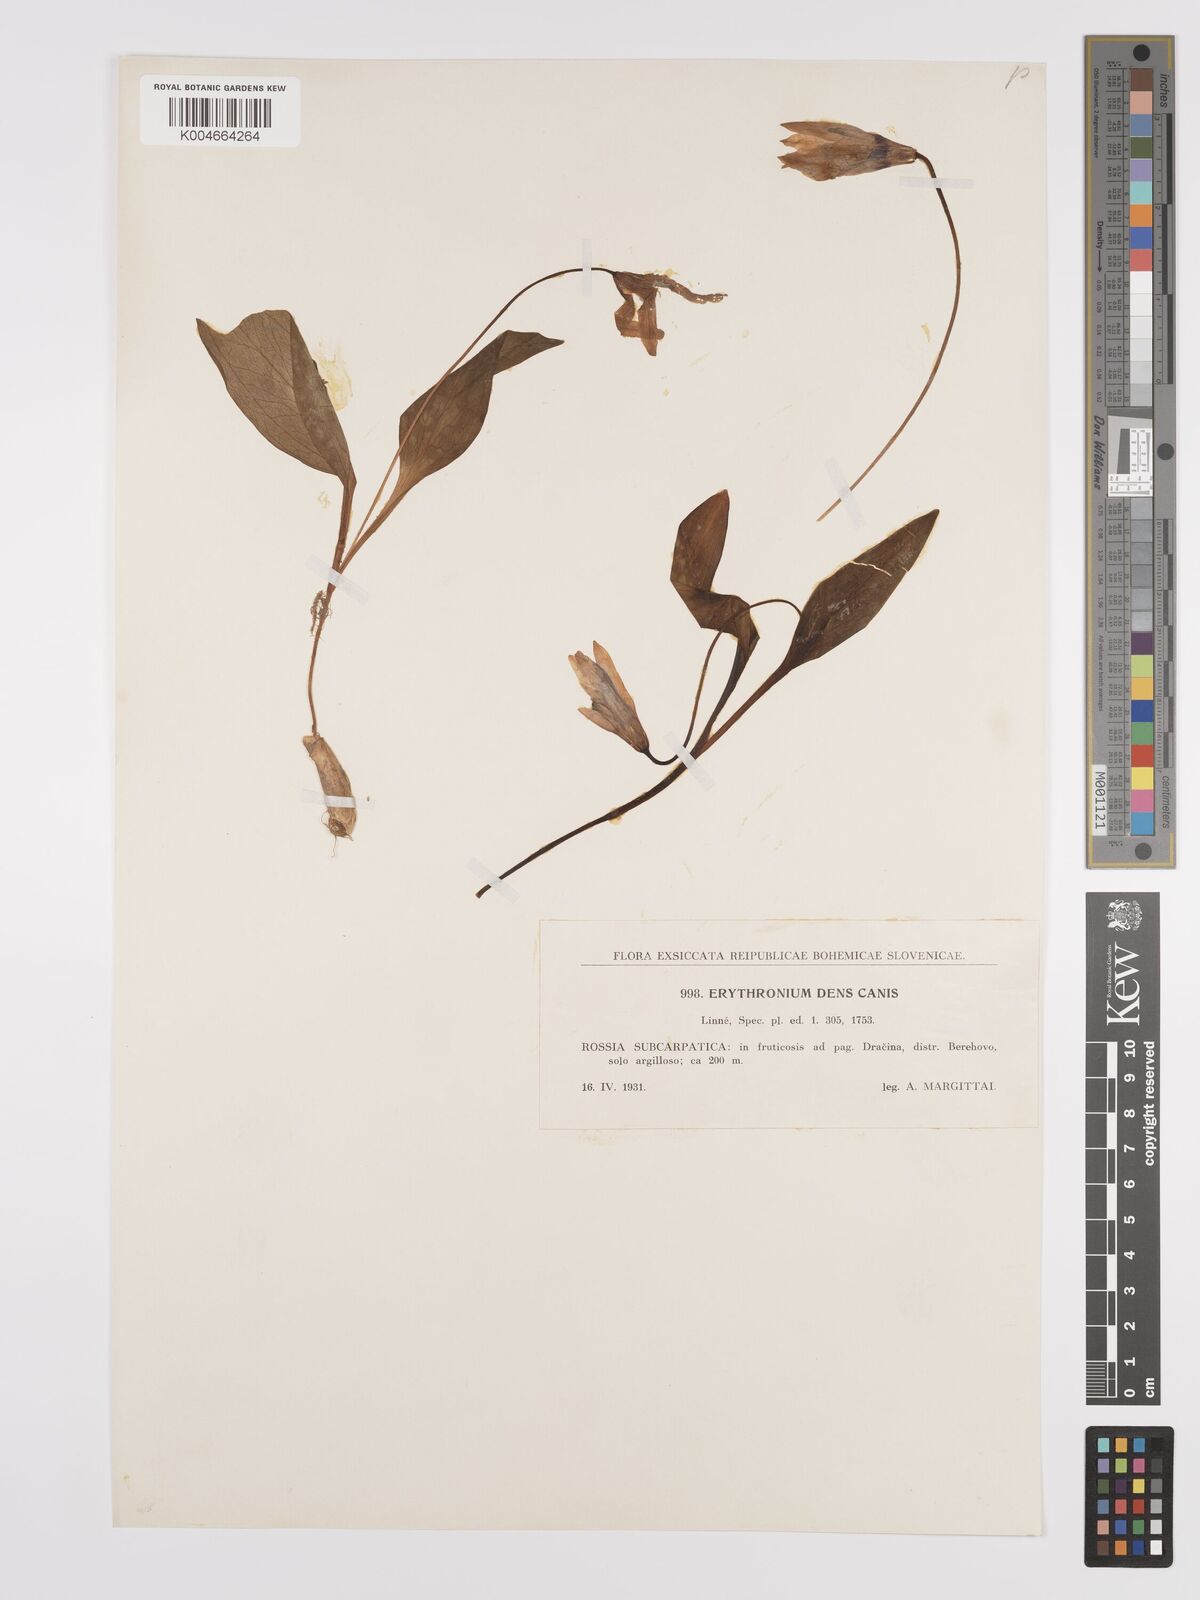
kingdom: Plantae
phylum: Tracheophyta
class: Liliopsida
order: Liliales
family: Liliaceae
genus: Erythronium
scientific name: Erythronium dens-canis
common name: Dog's-tooth-violet
